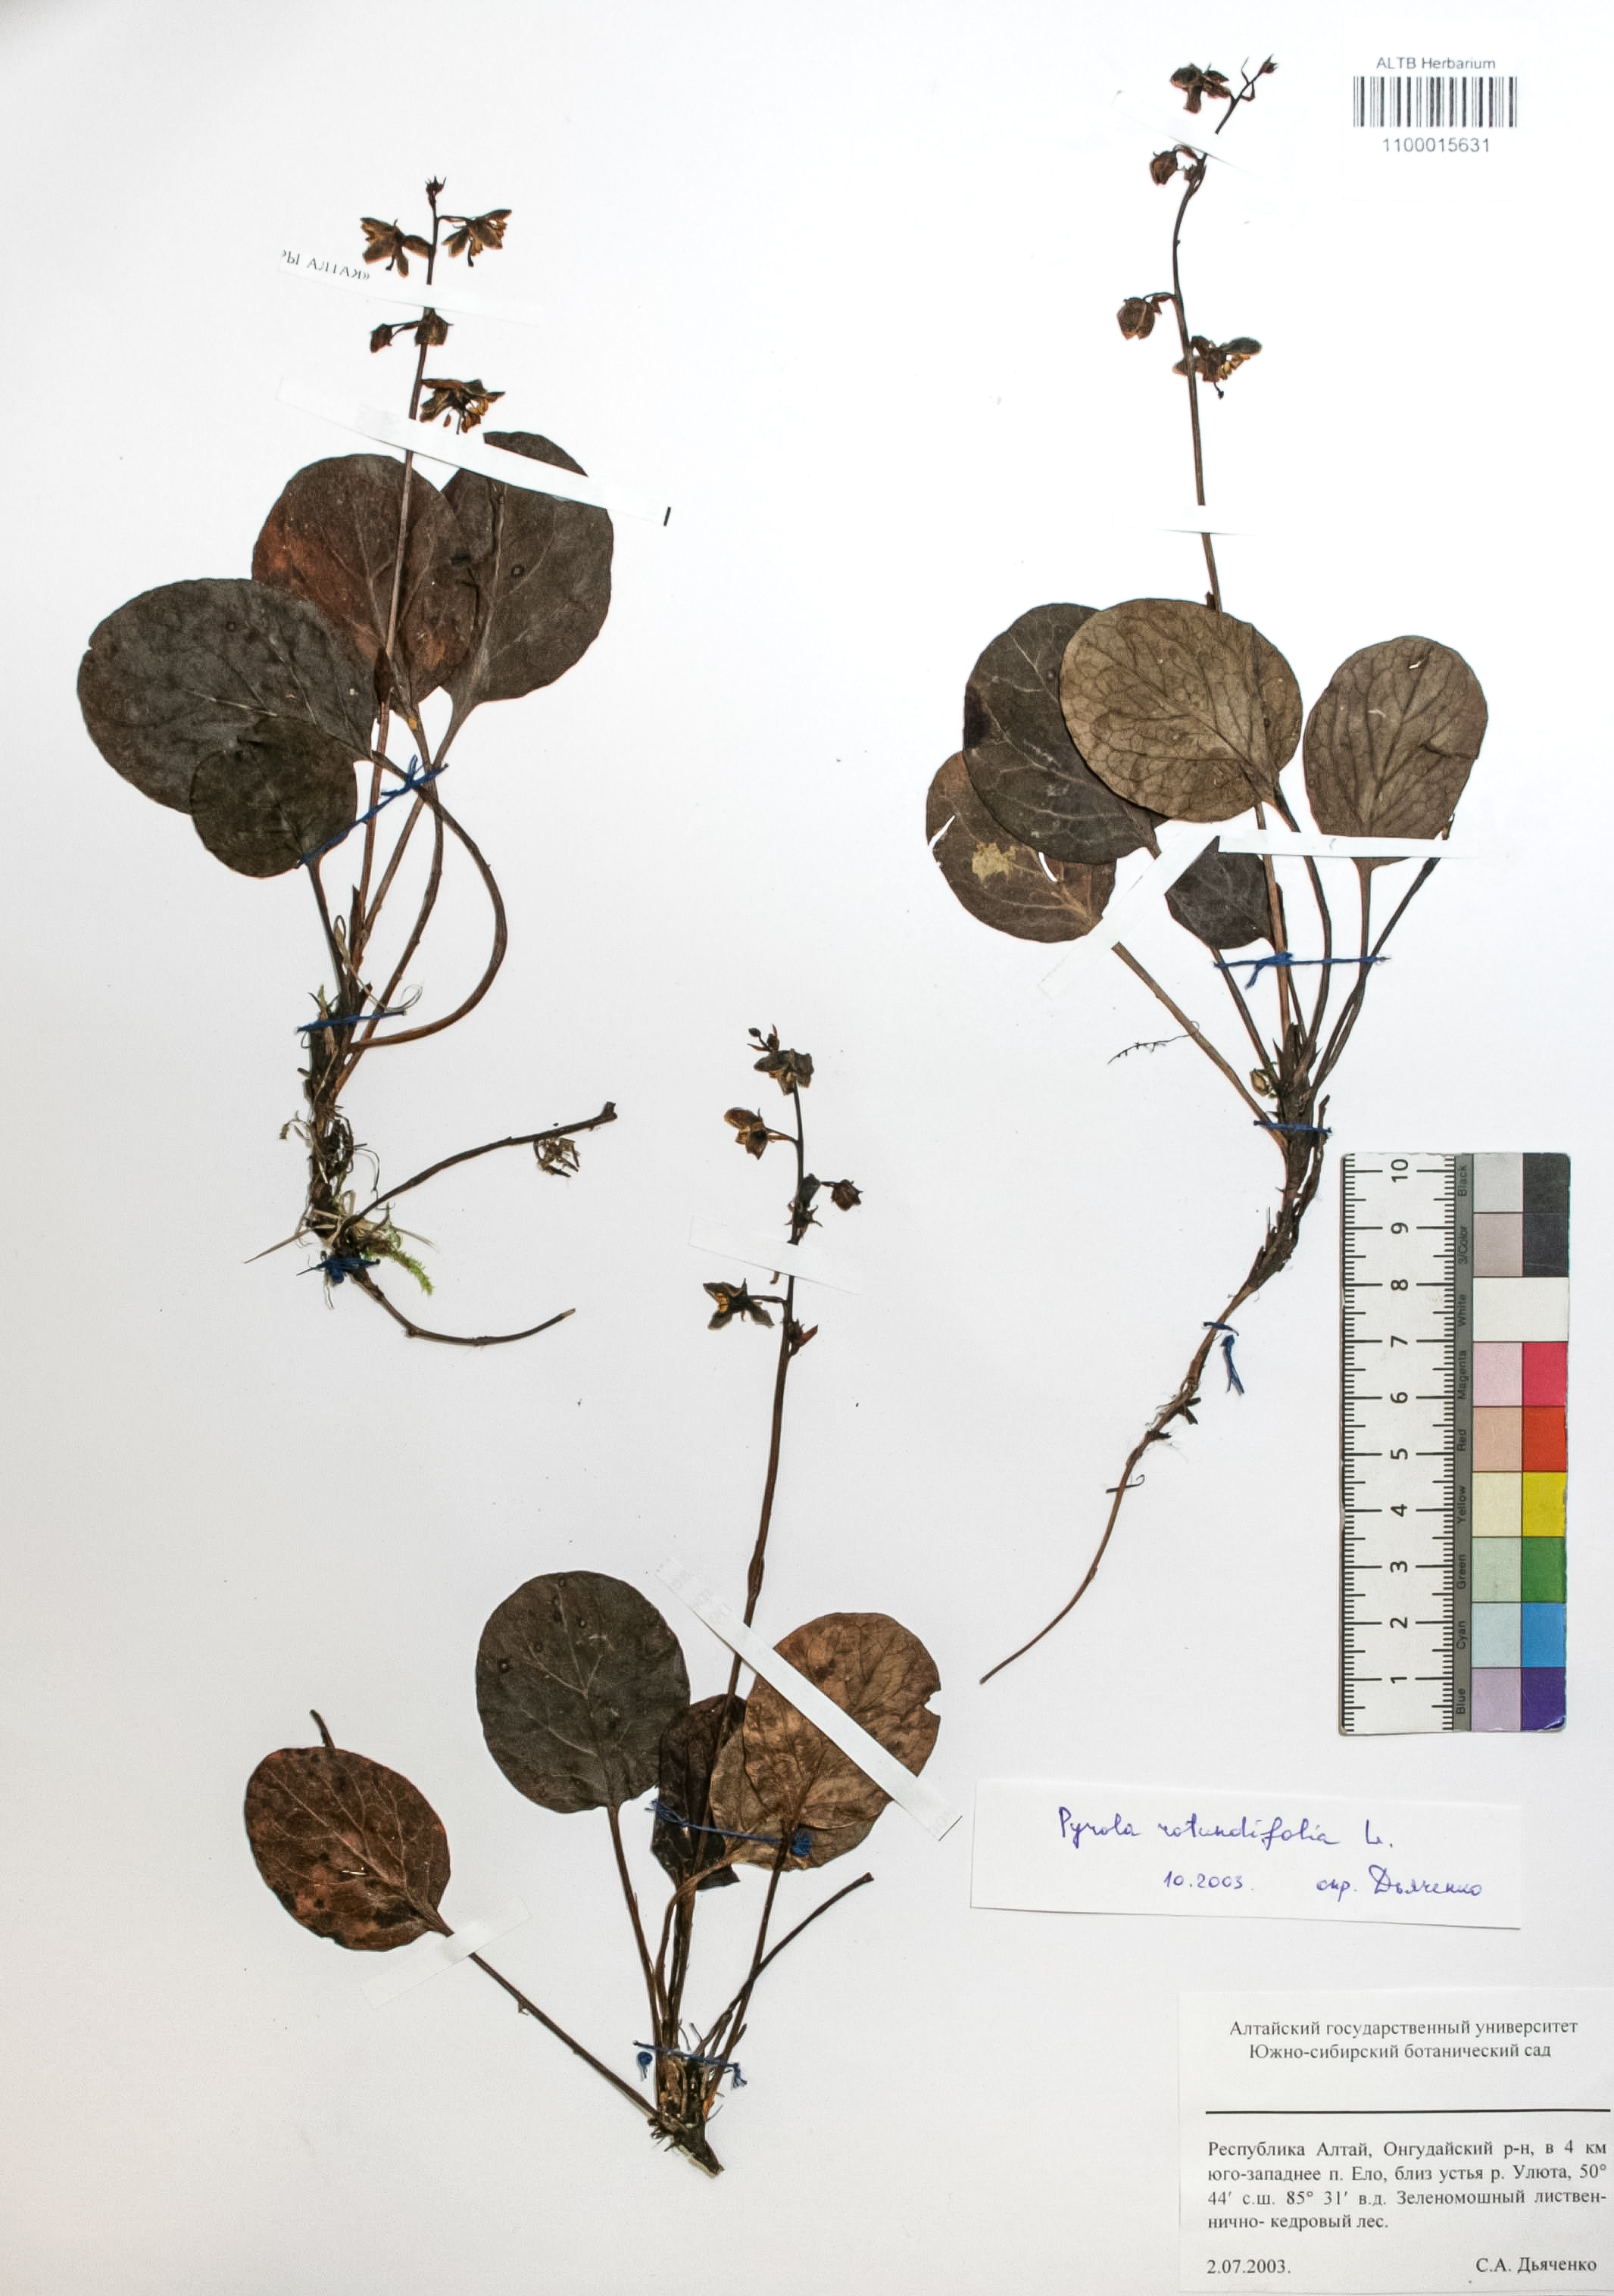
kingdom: Plantae
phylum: Tracheophyta
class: Magnoliopsida
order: Ericales
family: Ericaceae
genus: Pyrola
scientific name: Pyrola rotundifolia
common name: Round-leaved wintergreen
